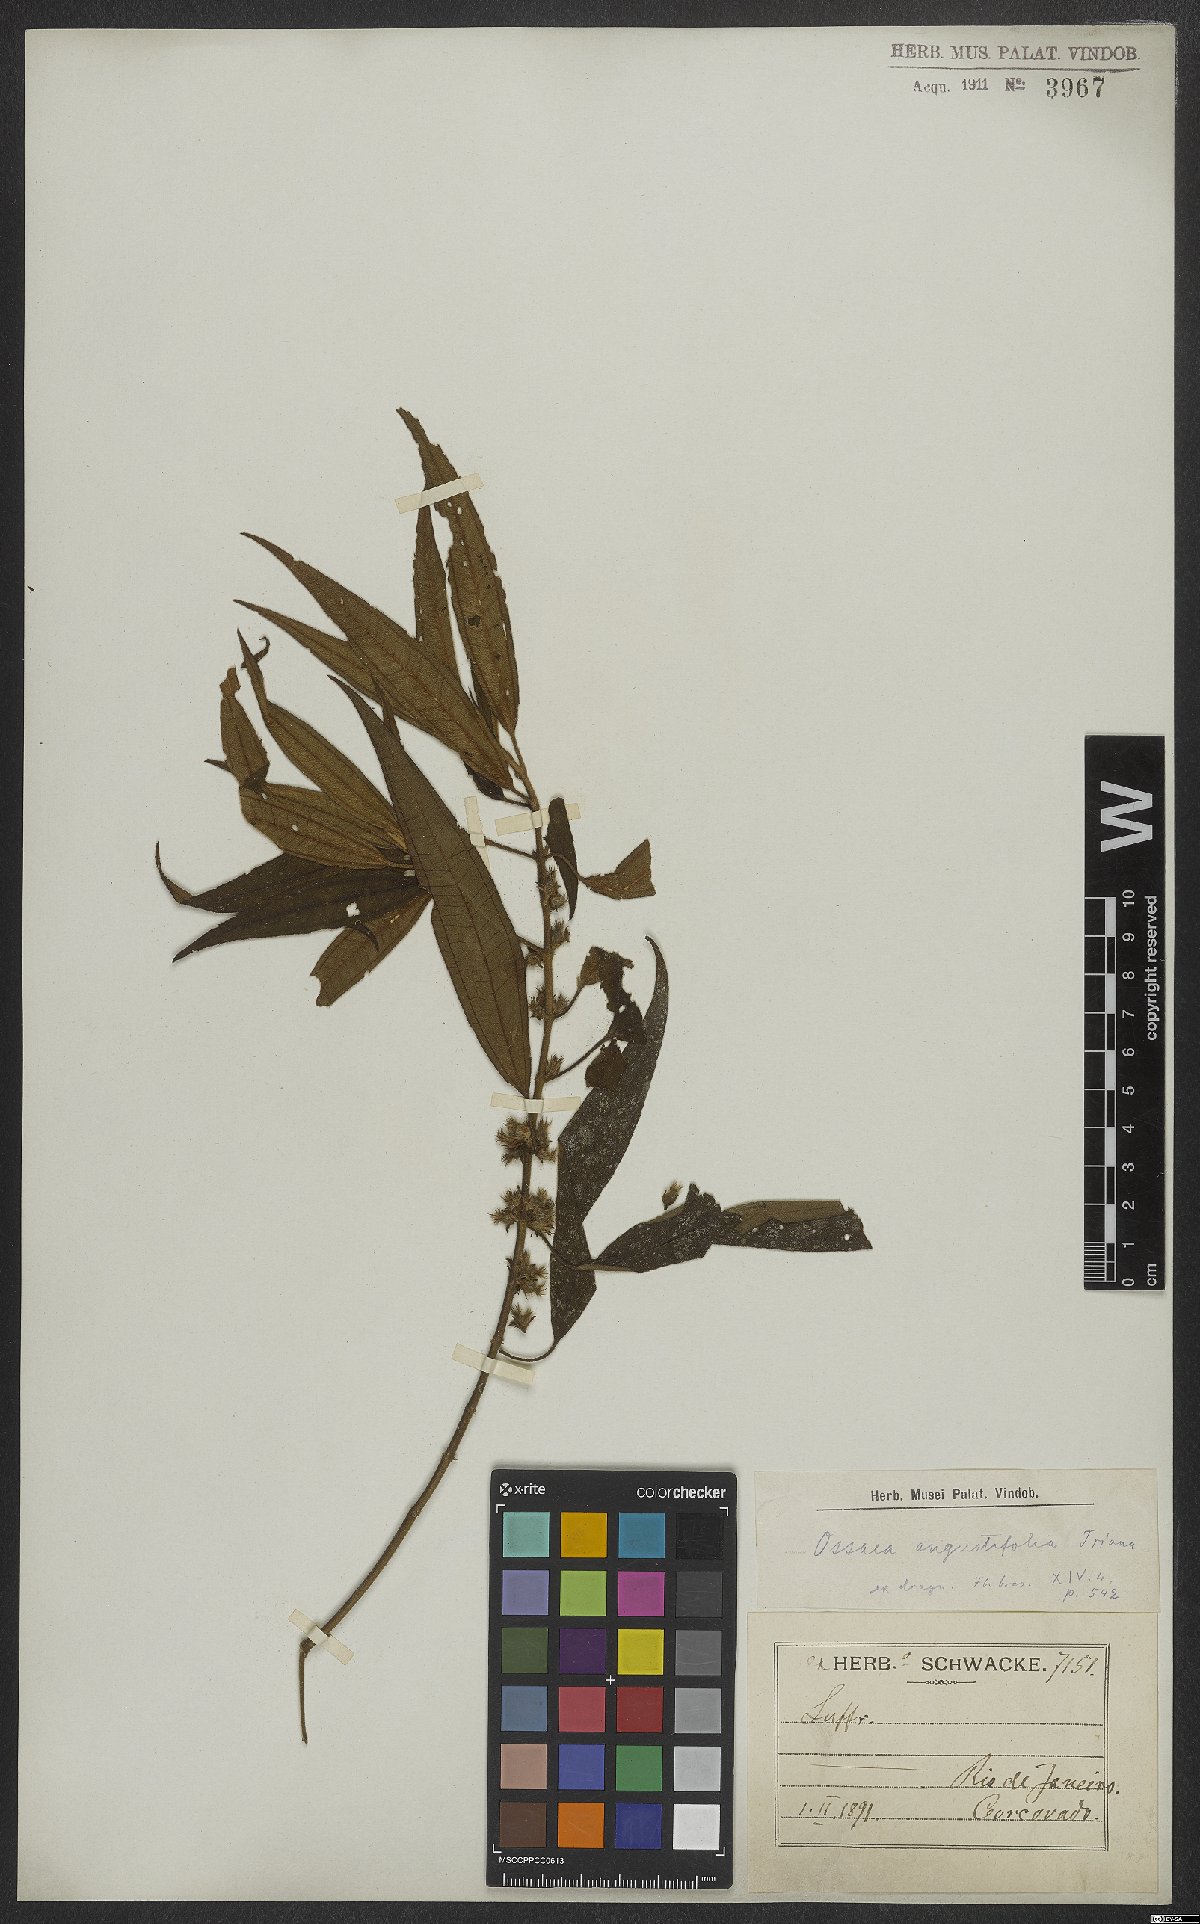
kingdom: Plantae
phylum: Tracheophyta
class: Magnoliopsida
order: Myrtales
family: Melastomataceae
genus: Miconia
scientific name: Miconia corcovadensis
